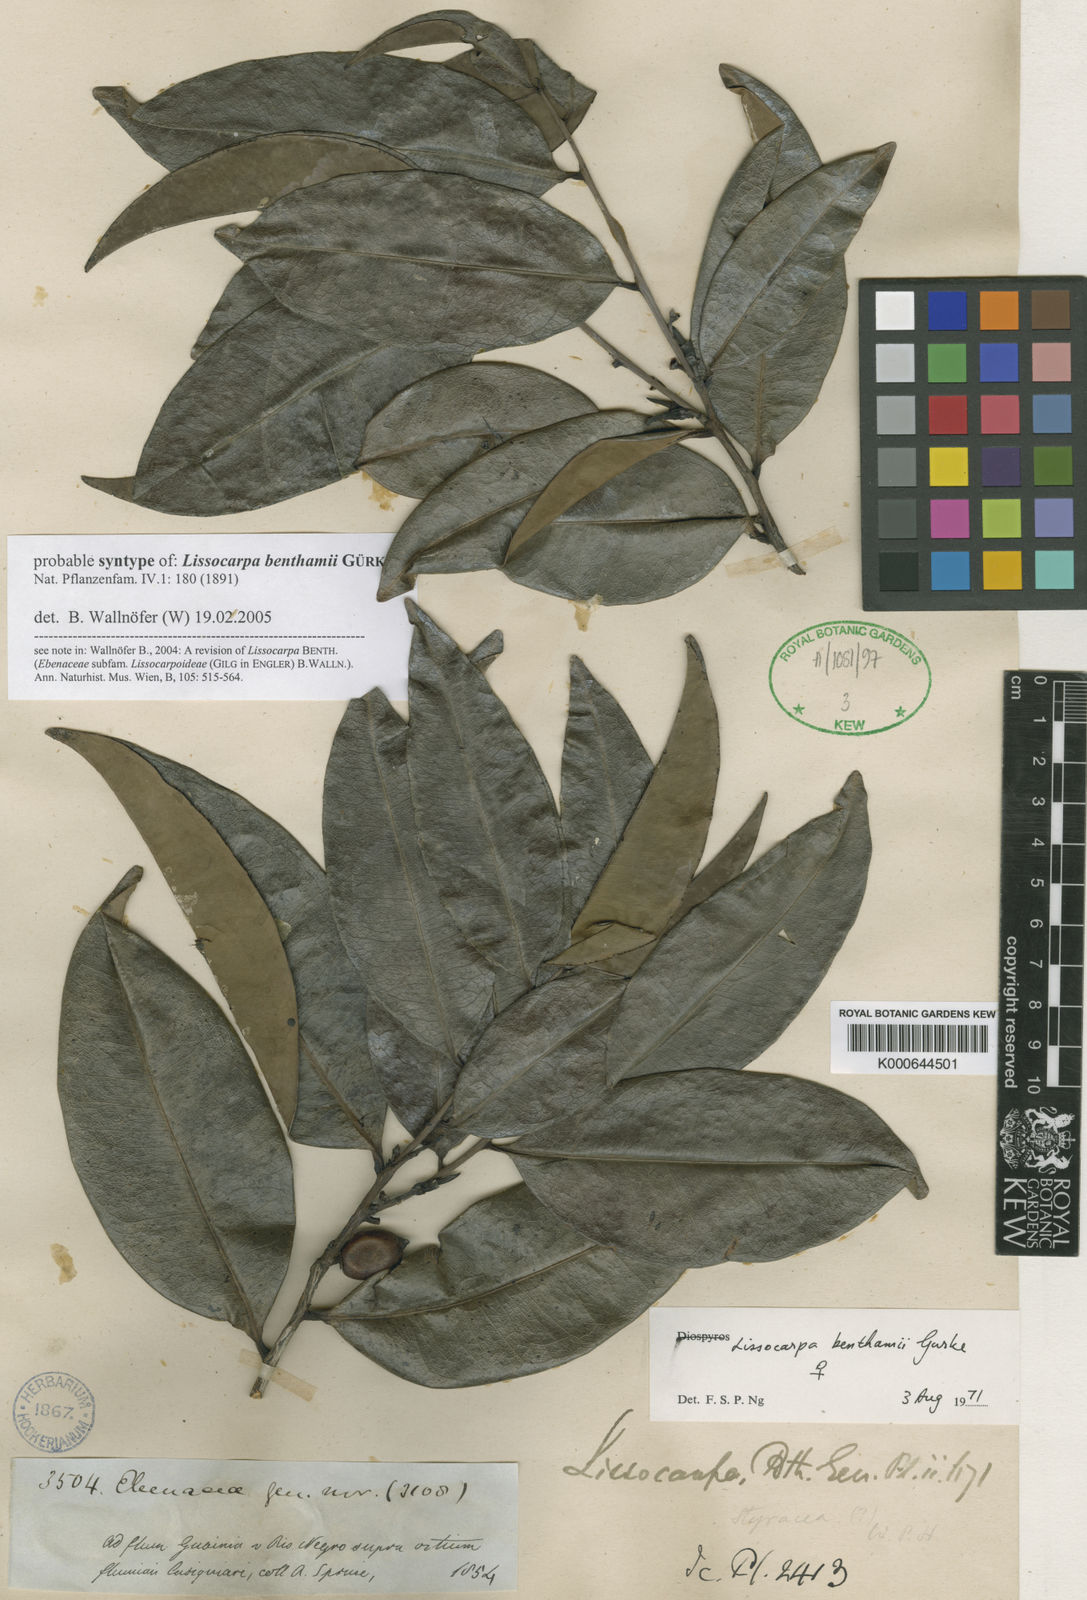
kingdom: Plantae
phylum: Tracheophyta
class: Magnoliopsida
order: Ericales
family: Ebenaceae
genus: Lissocarpa
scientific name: Lissocarpa
